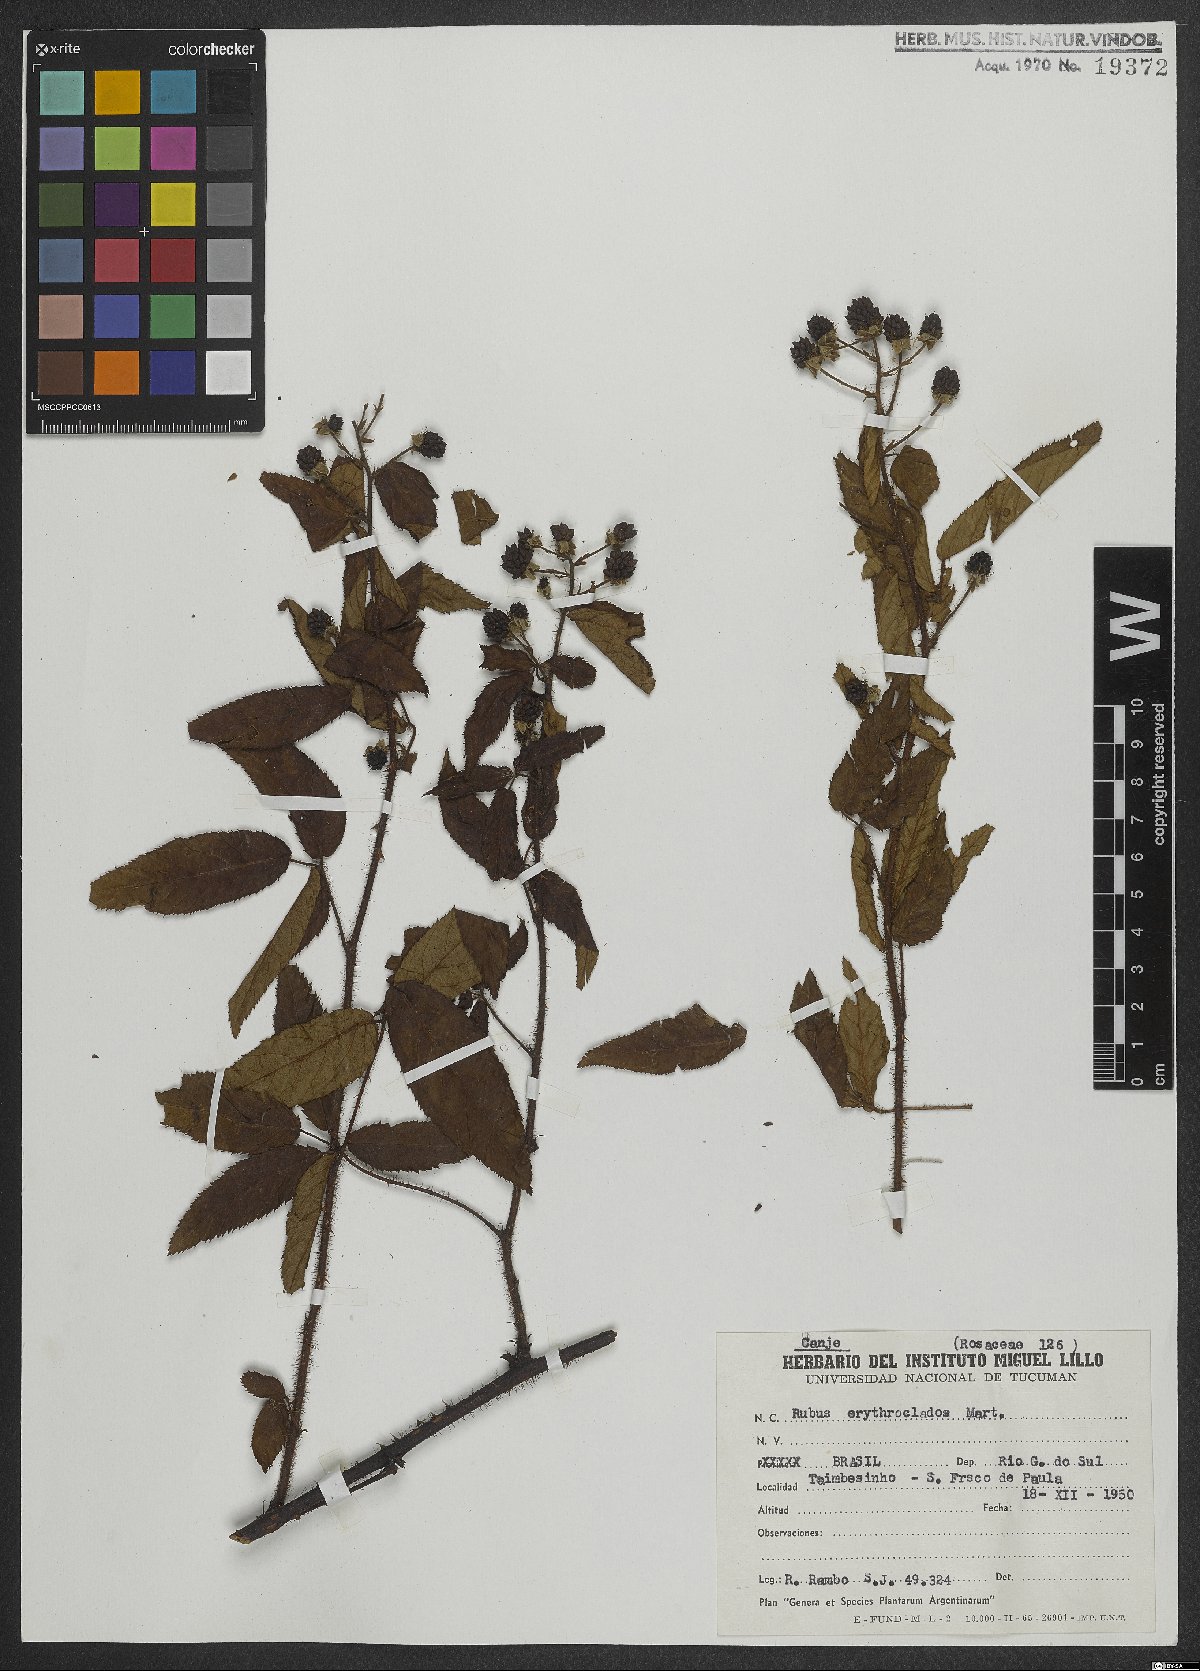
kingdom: Plantae
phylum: Tracheophyta
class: Magnoliopsida
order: Rosales
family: Rosaceae
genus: Rubus
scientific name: Rubus erythroclados
